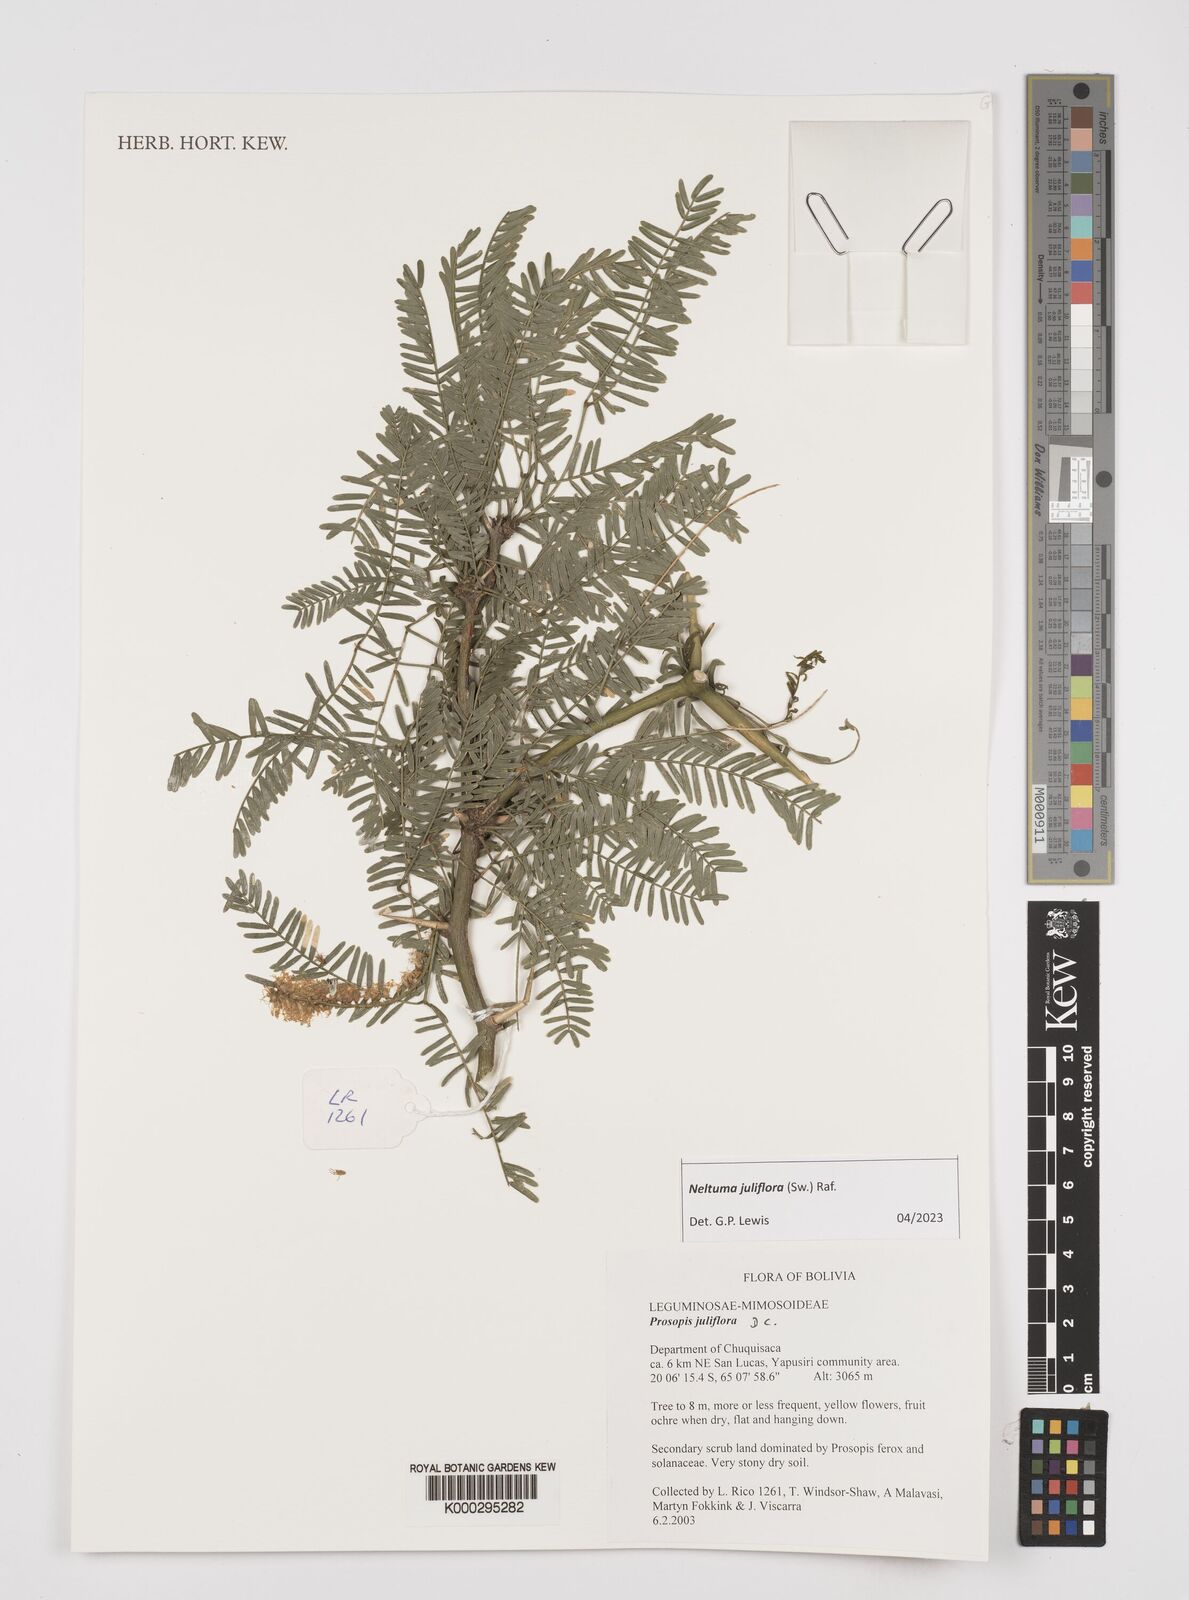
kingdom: Plantae
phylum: Tracheophyta
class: Magnoliopsida
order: Fabales
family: Fabaceae
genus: Prosopis
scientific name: Prosopis juliflora
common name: Mesquite
